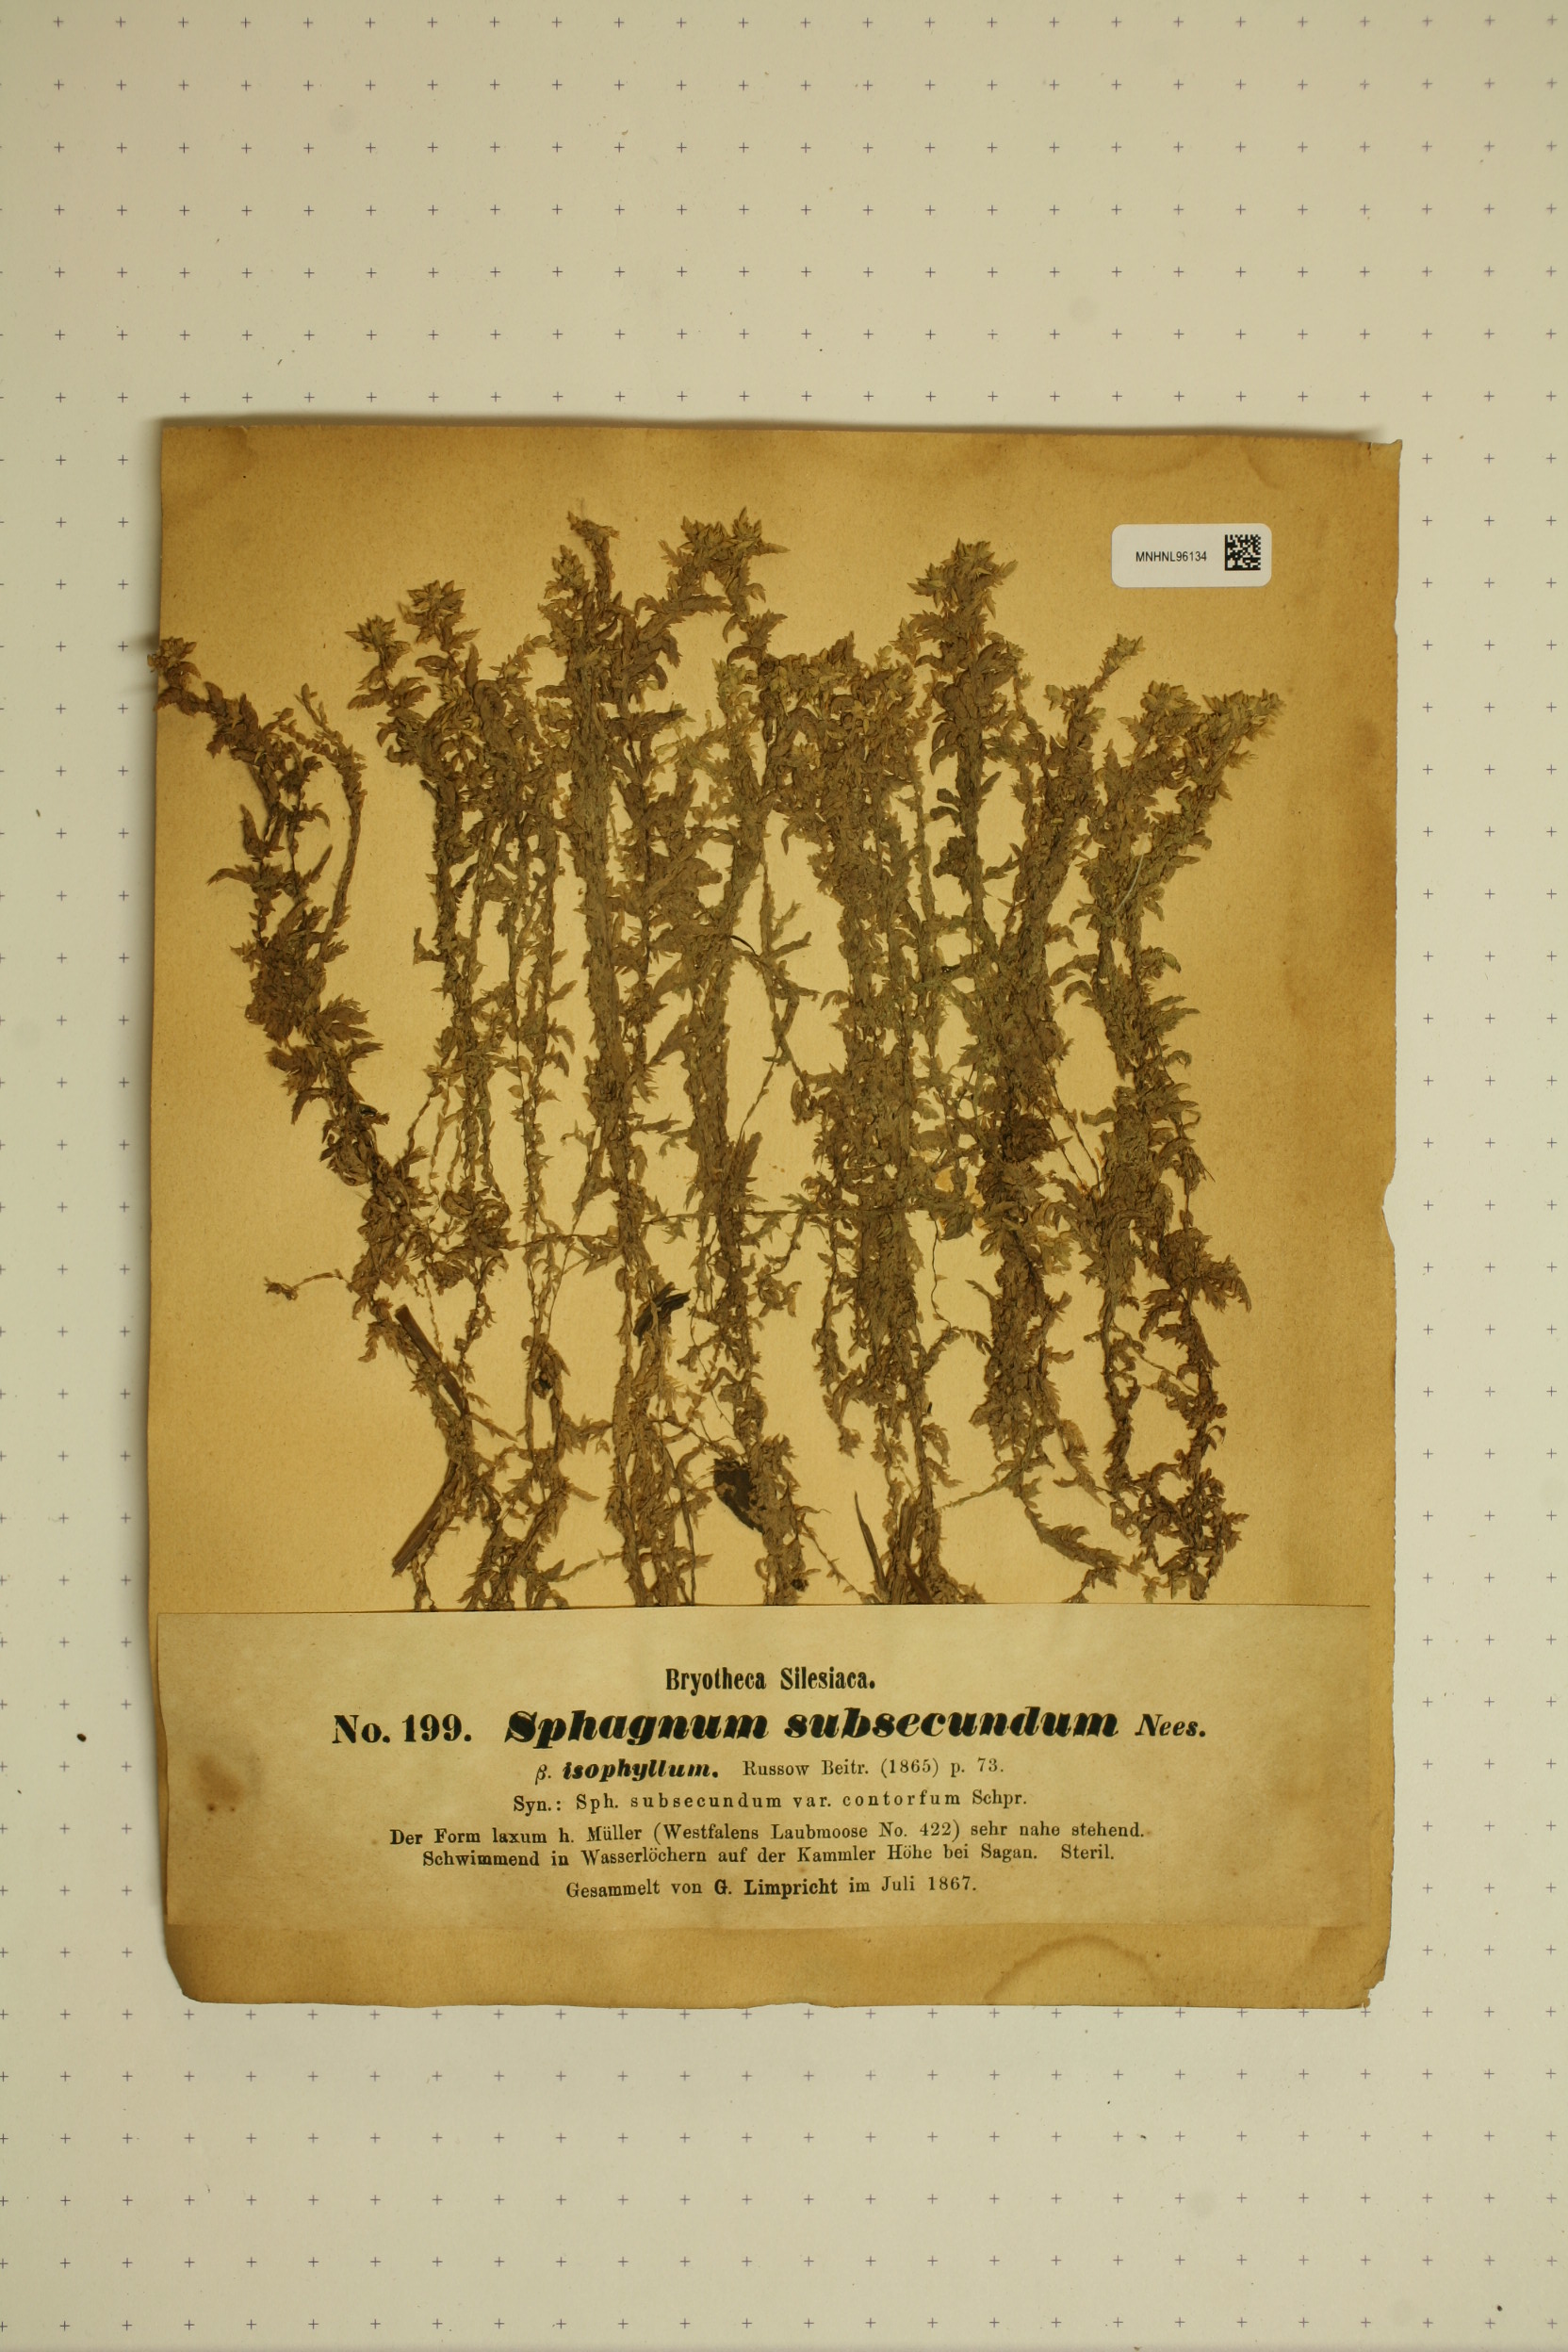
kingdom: Plantae
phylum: Bryophyta
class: Sphagnopsida
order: Sphagnales
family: Sphagnaceae
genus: Sphagnum
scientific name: Sphagnum platyphyllum
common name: Flat-leaved peat moss
